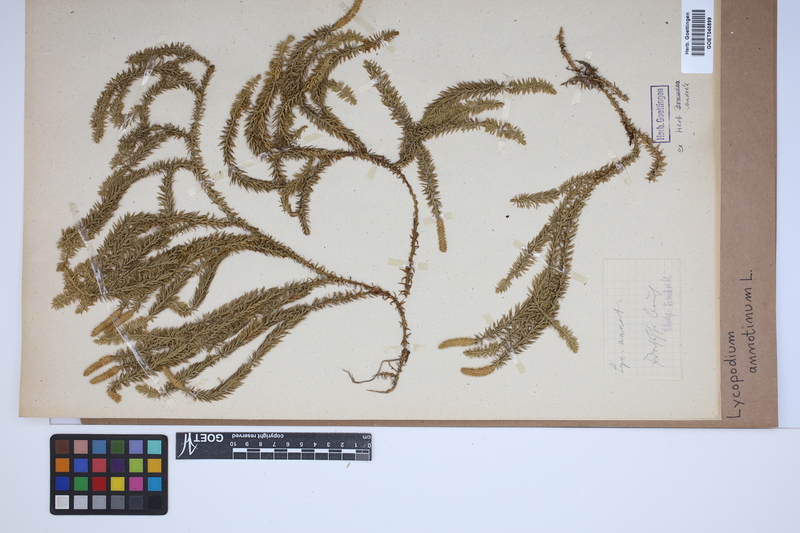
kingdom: Plantae
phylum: Tracheophyta
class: Lycopodiopsida
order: Lycopodiales
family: Lycopodiaceae
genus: Spinulum
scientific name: Spinulum annotinum
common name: Interrupted club-moss
